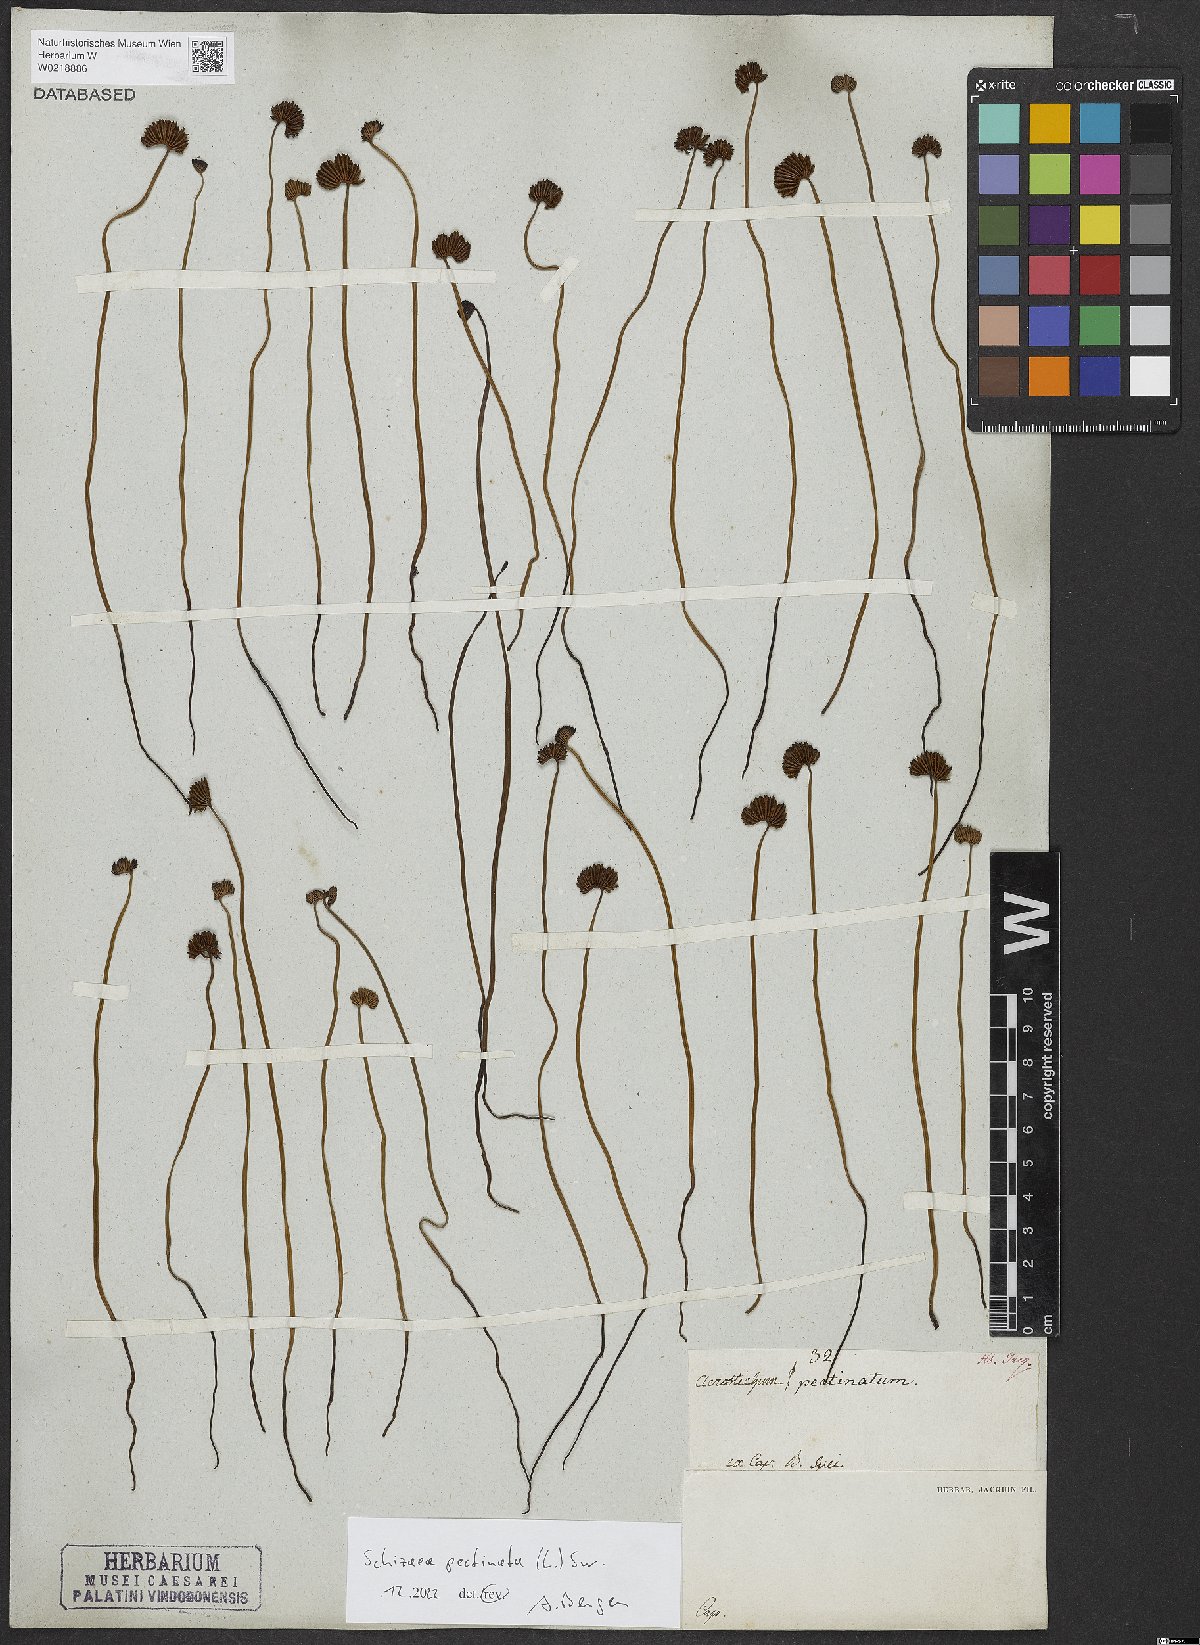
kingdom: Plantae
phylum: Tracheophyta
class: Polypodiopsida
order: Schizaeales
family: Schizaeaceae
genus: Schizaea
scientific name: Schizaea pectinata
